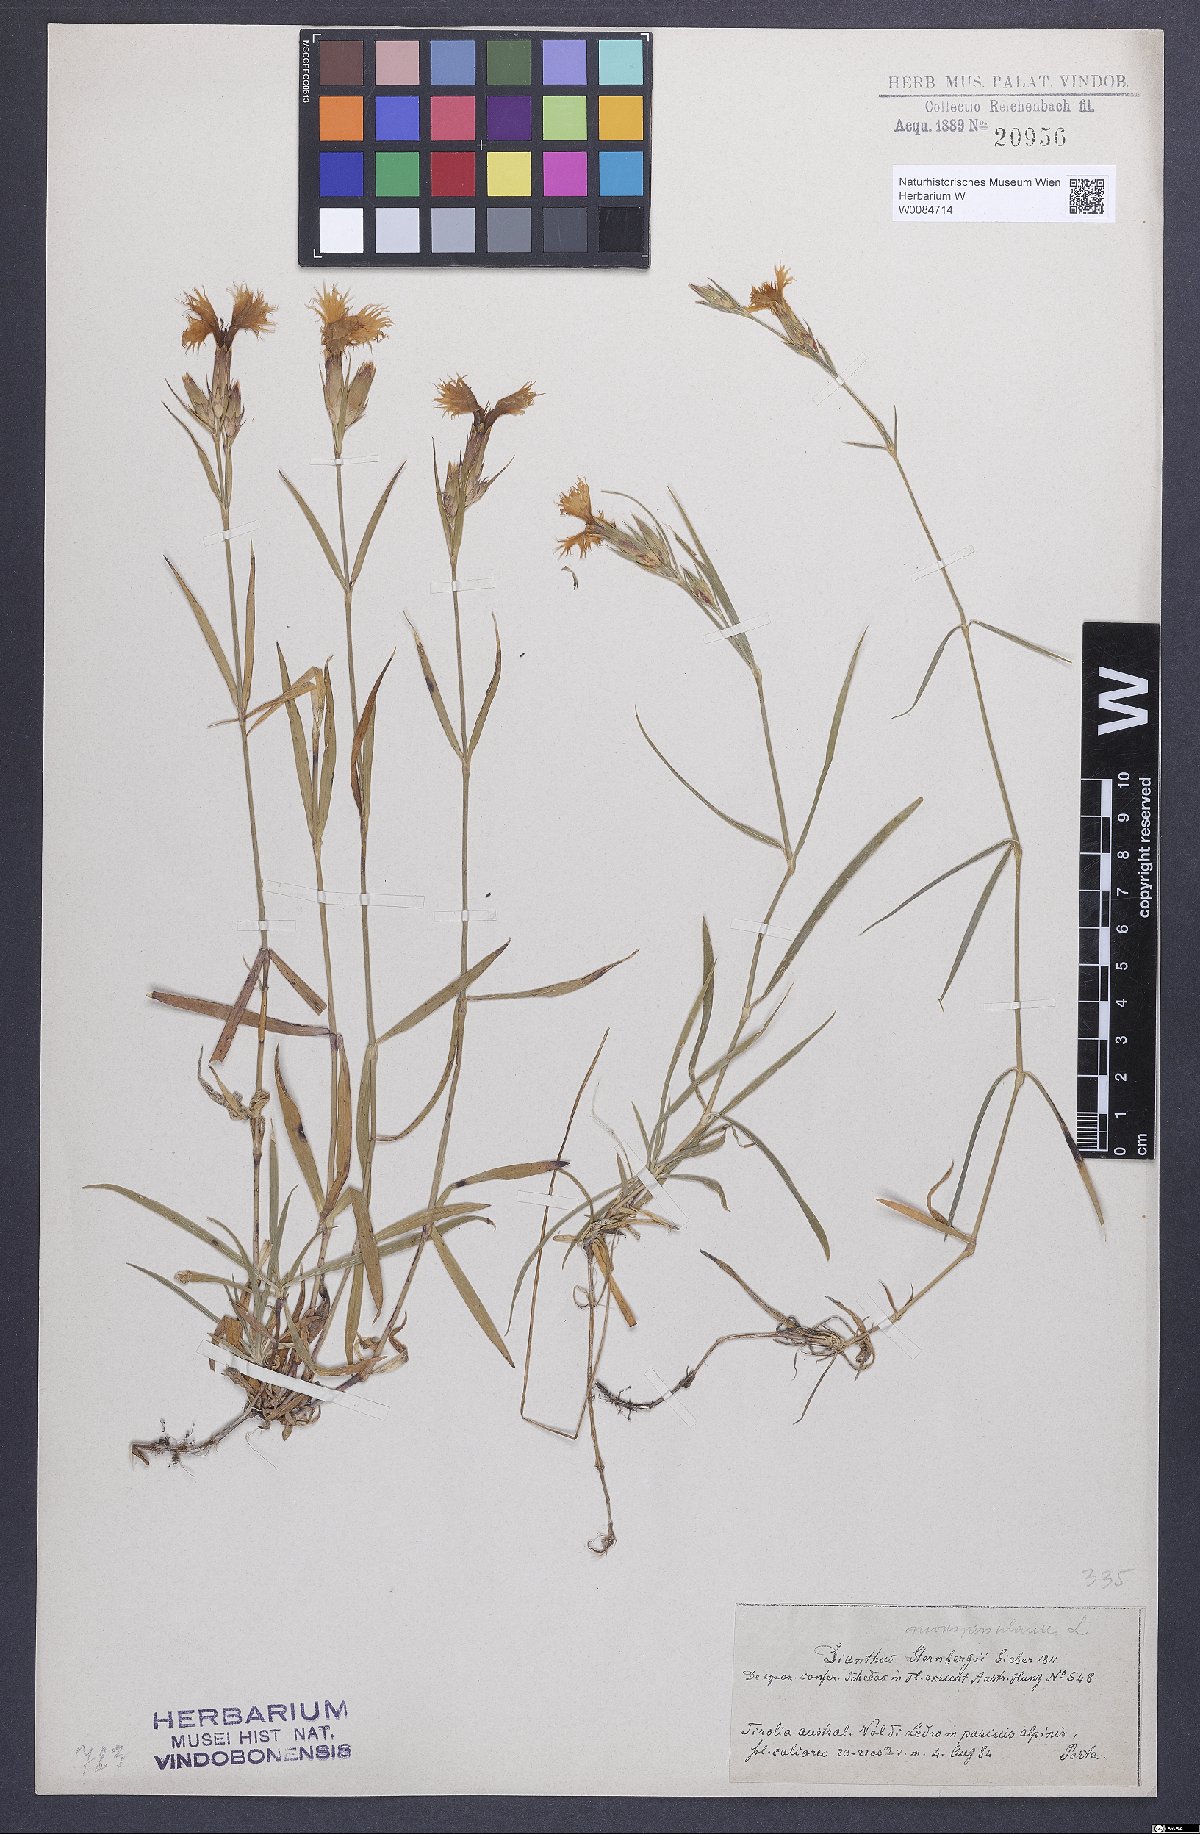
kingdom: Plantae
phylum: Tracheophyta
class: Magnoliopsida
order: Caryophyllales
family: Caryophyllaceae
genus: Dianthus
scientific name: Dianthus hyssopifolius
